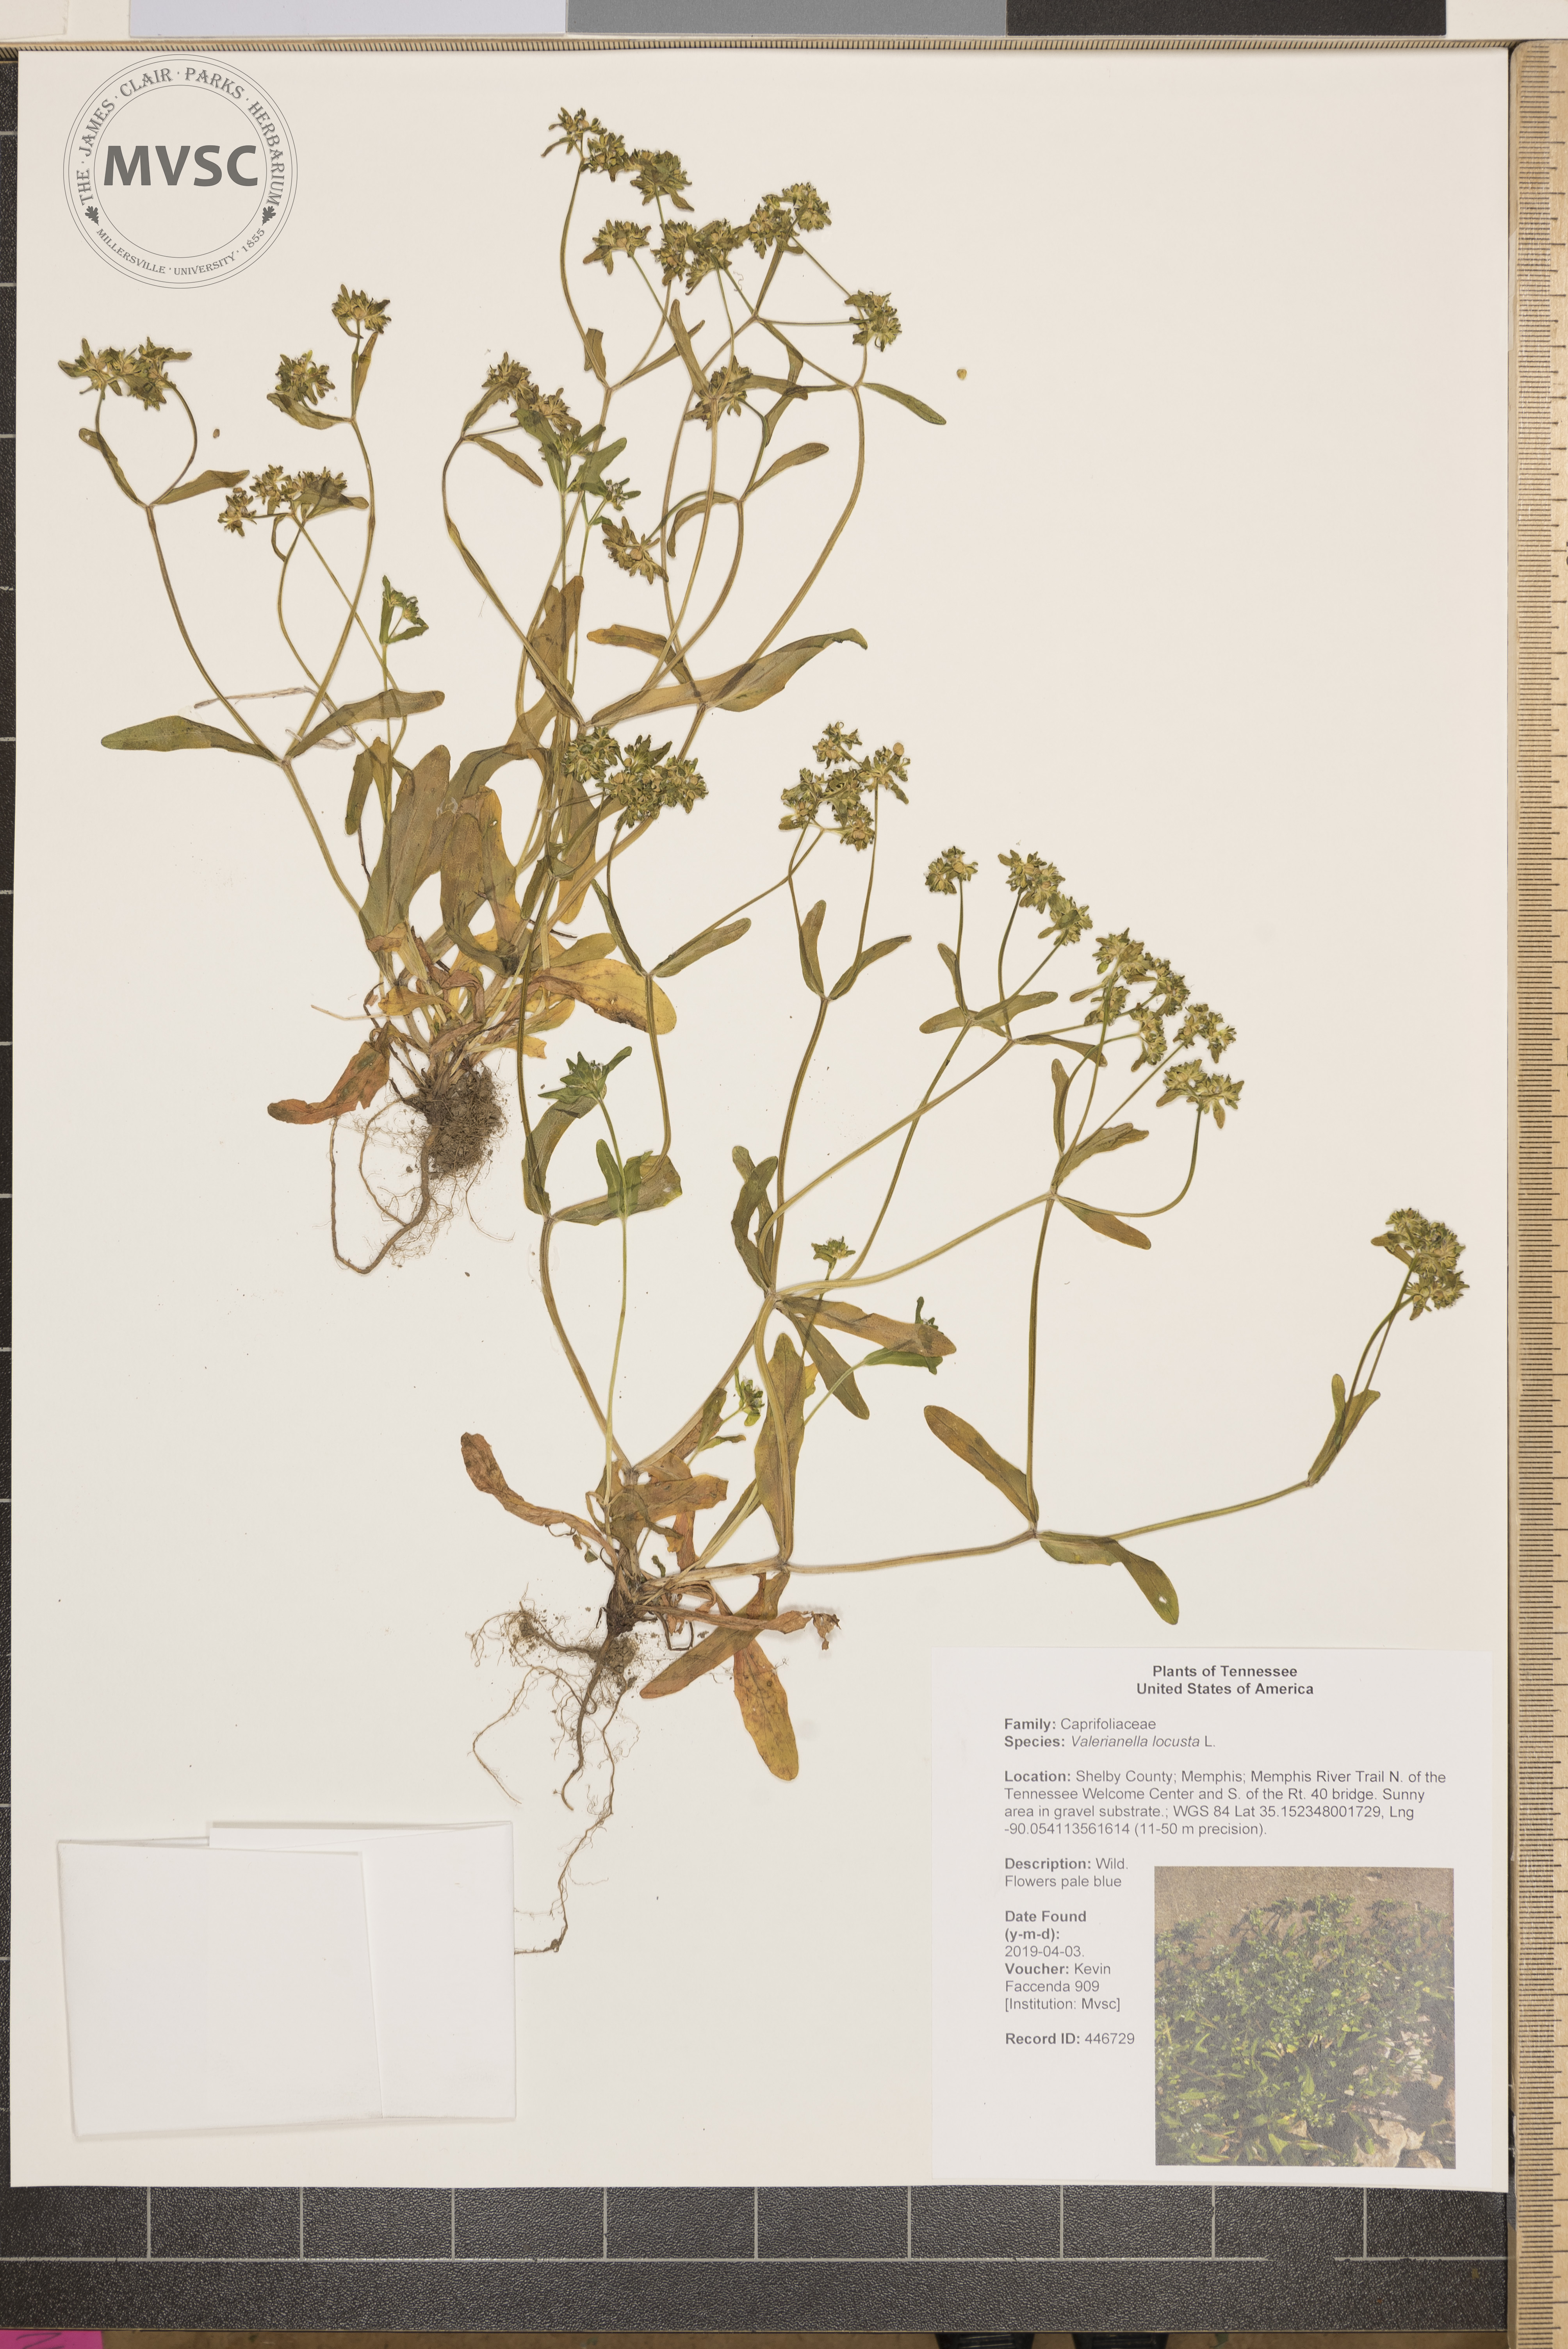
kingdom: Plantae
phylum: Tracheophyta
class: Magnoliopsida
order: Dipsacales
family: Caprifoliaceae
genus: Valerianella
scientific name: Valerianella locusta
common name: Common cornsalad
